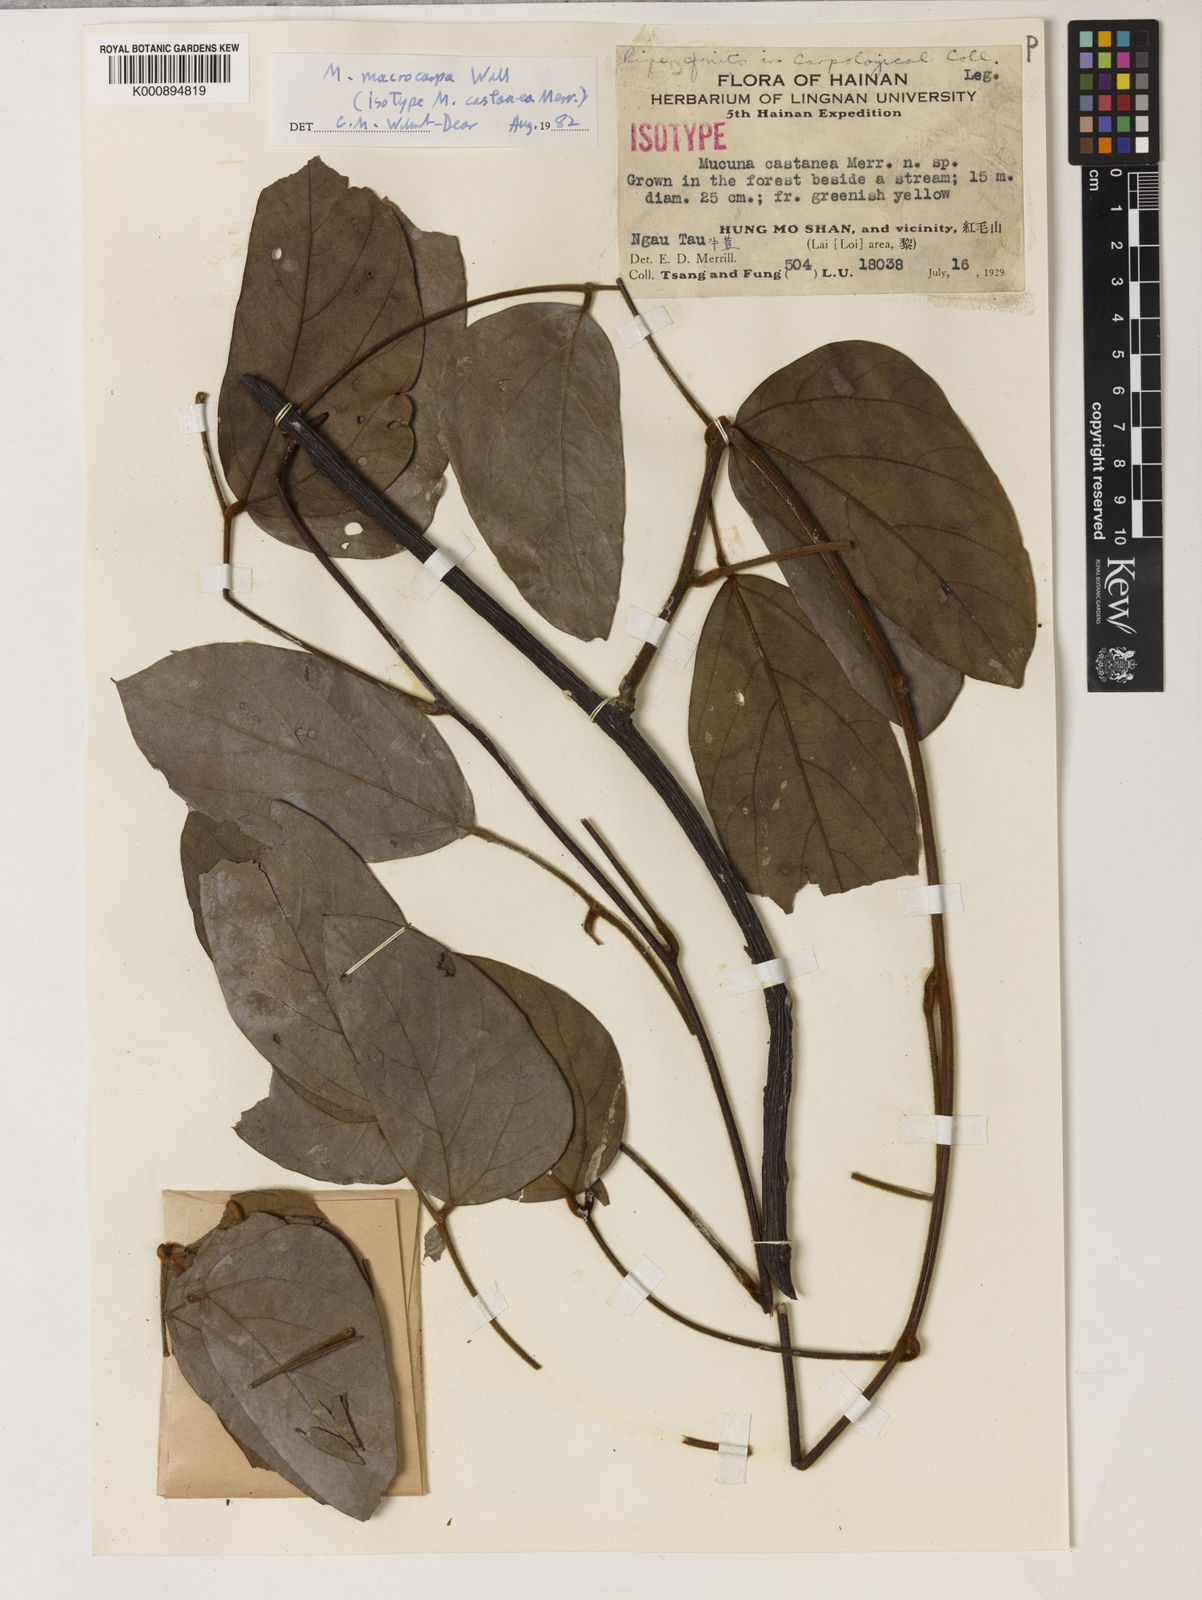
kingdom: Plantae
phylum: Tracheophyta
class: Magnoliopsida
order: Fabales
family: Fabaceae
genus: Mucuna
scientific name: Mucuna macrocarpa
